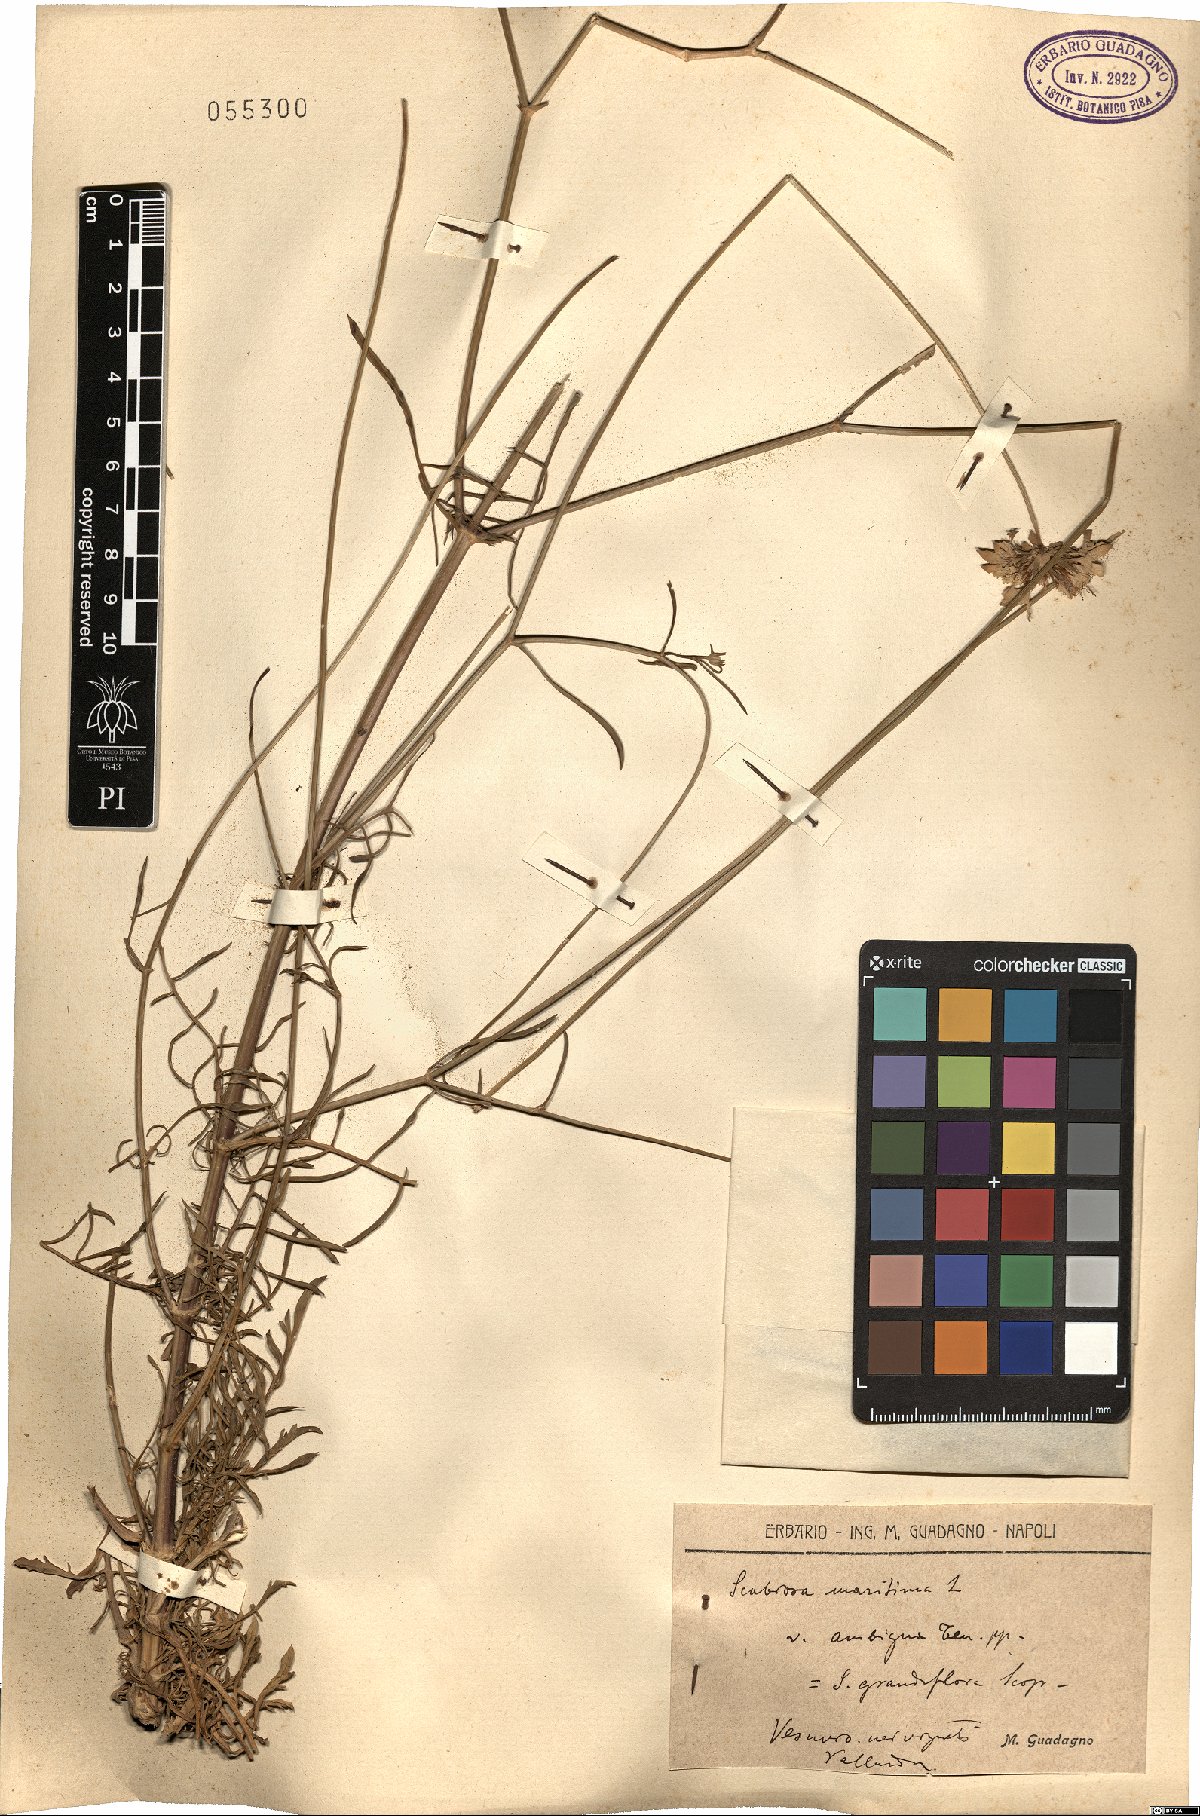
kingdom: Plantae
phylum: Tracheophyta
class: Magnoliopsida
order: Dipsacales
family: Caprifoliaceae
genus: Sixalix
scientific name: Sixalix maritima
